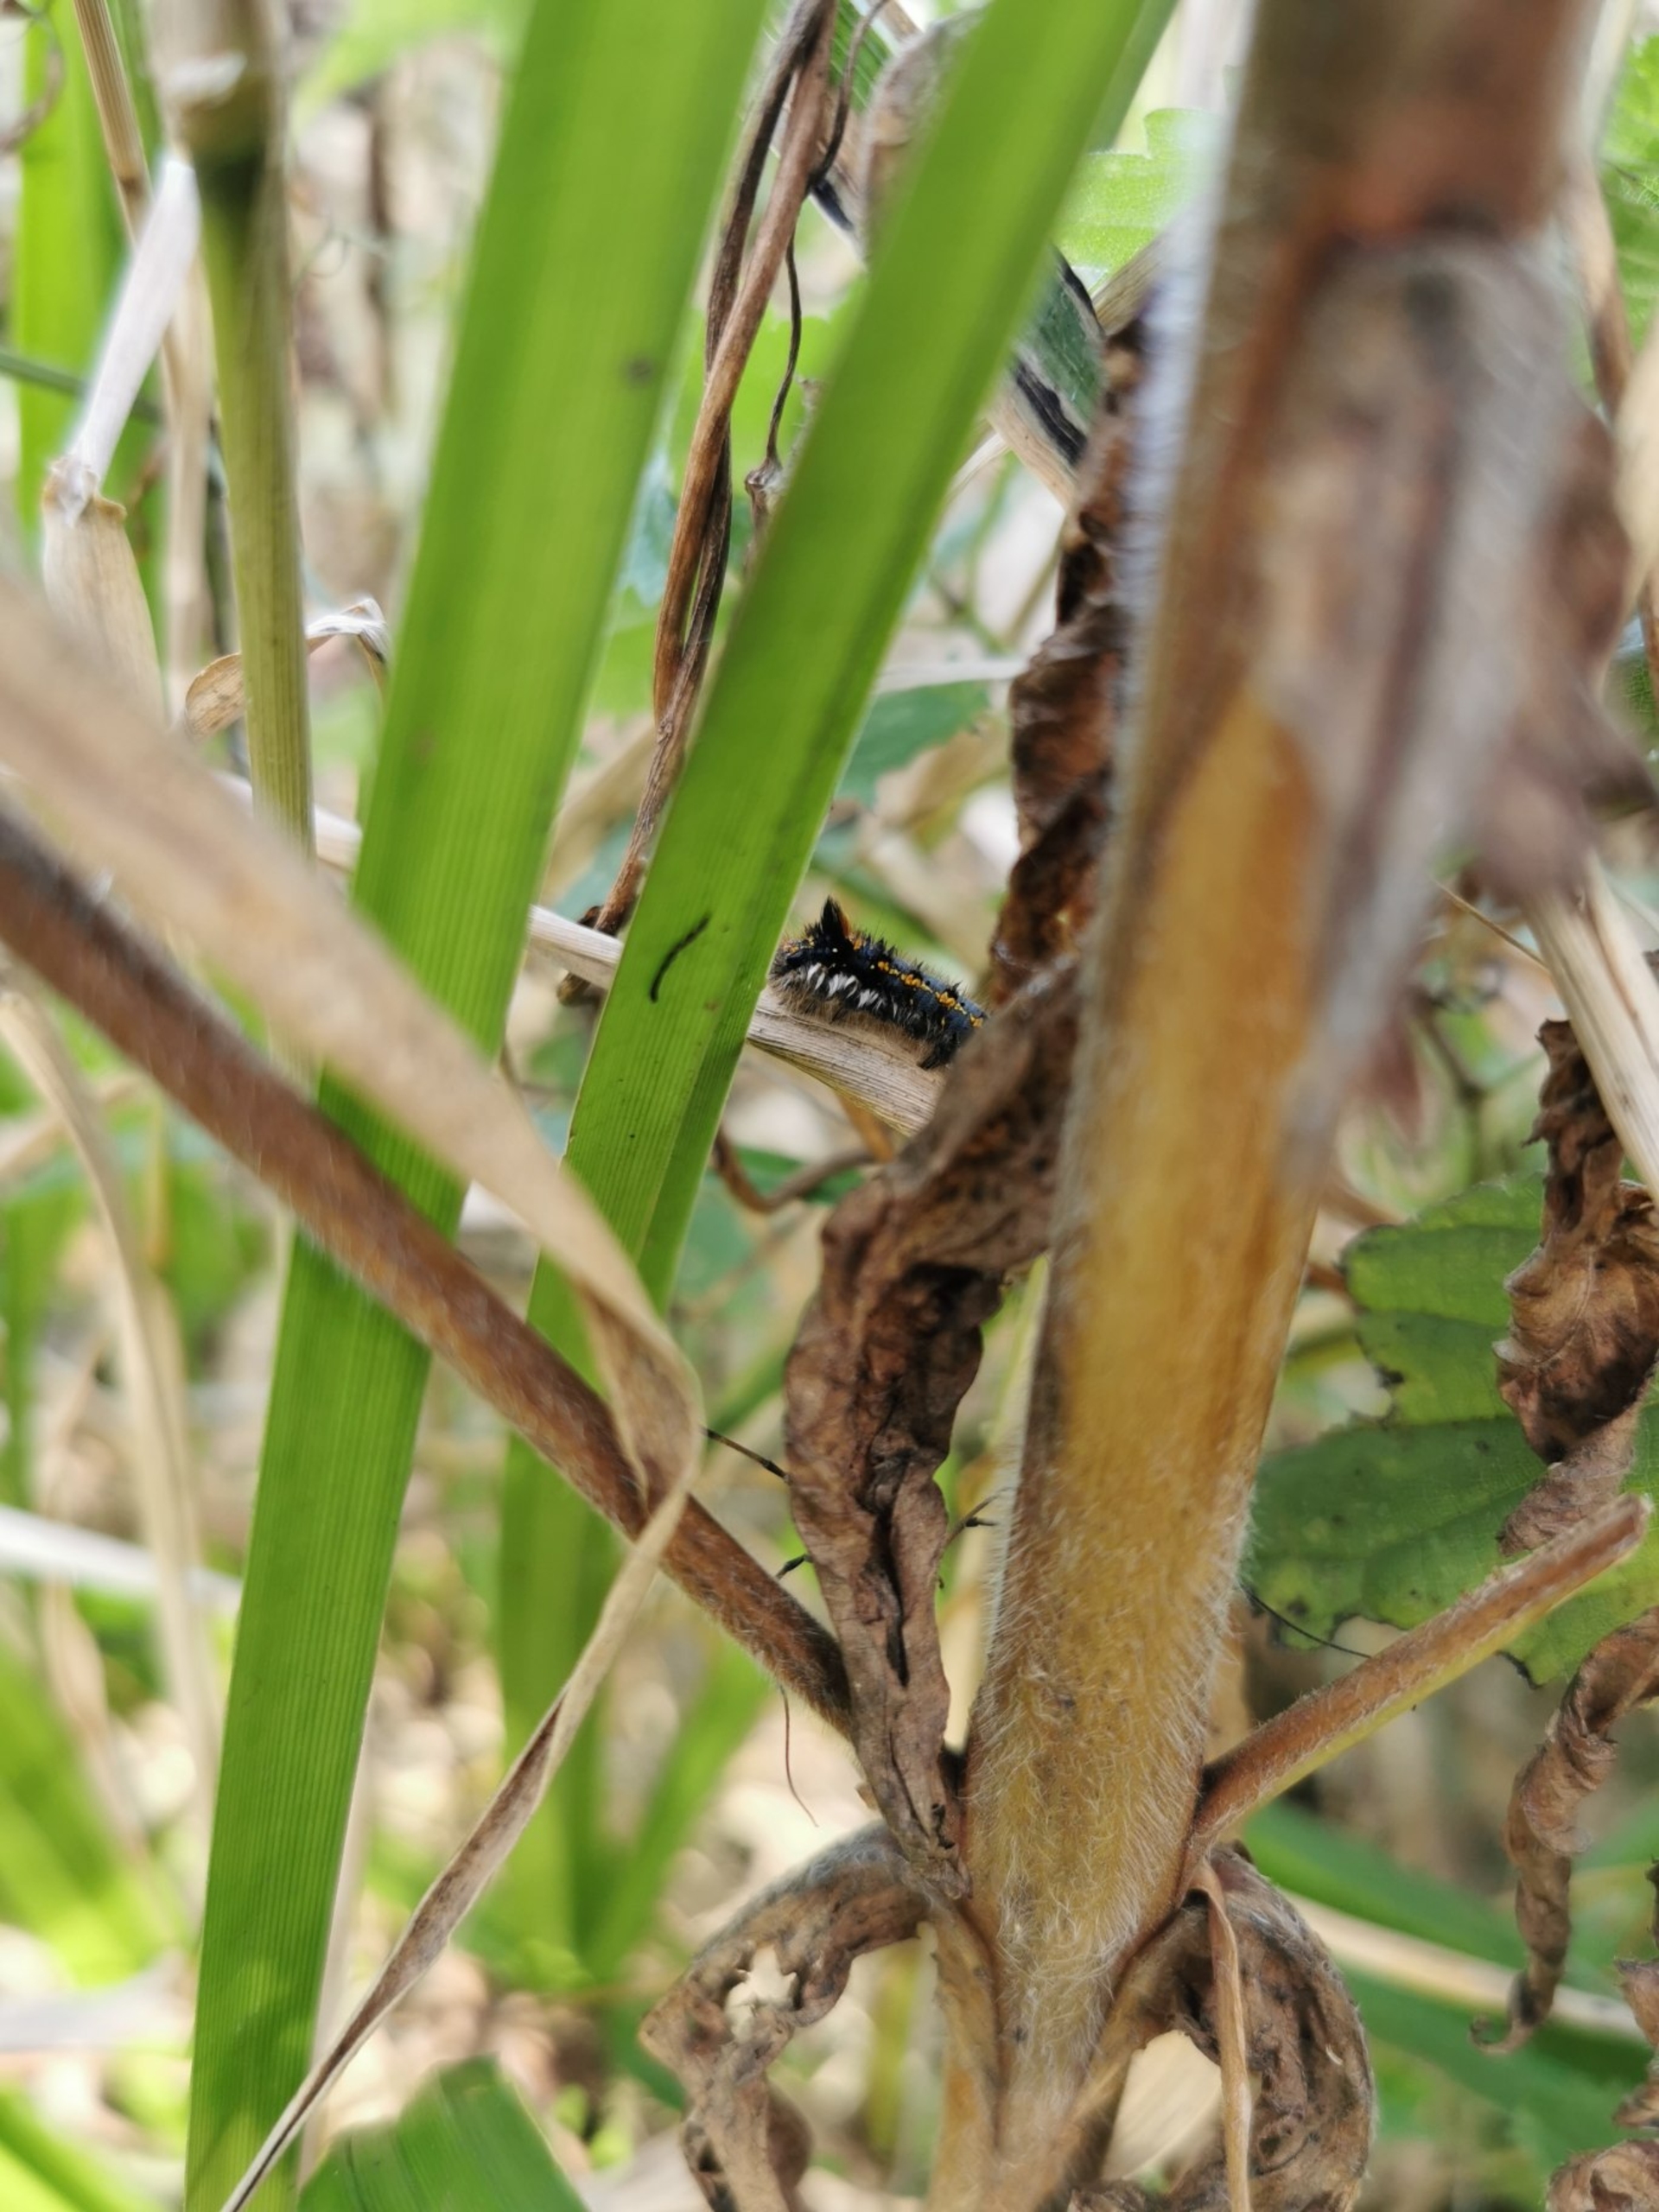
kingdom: Animalia
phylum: Arthropoda
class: Insecta
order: Lepidoptera
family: Lasiocampidae
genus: Euthrix
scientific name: Euthrix potatoria
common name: Græsspinder
